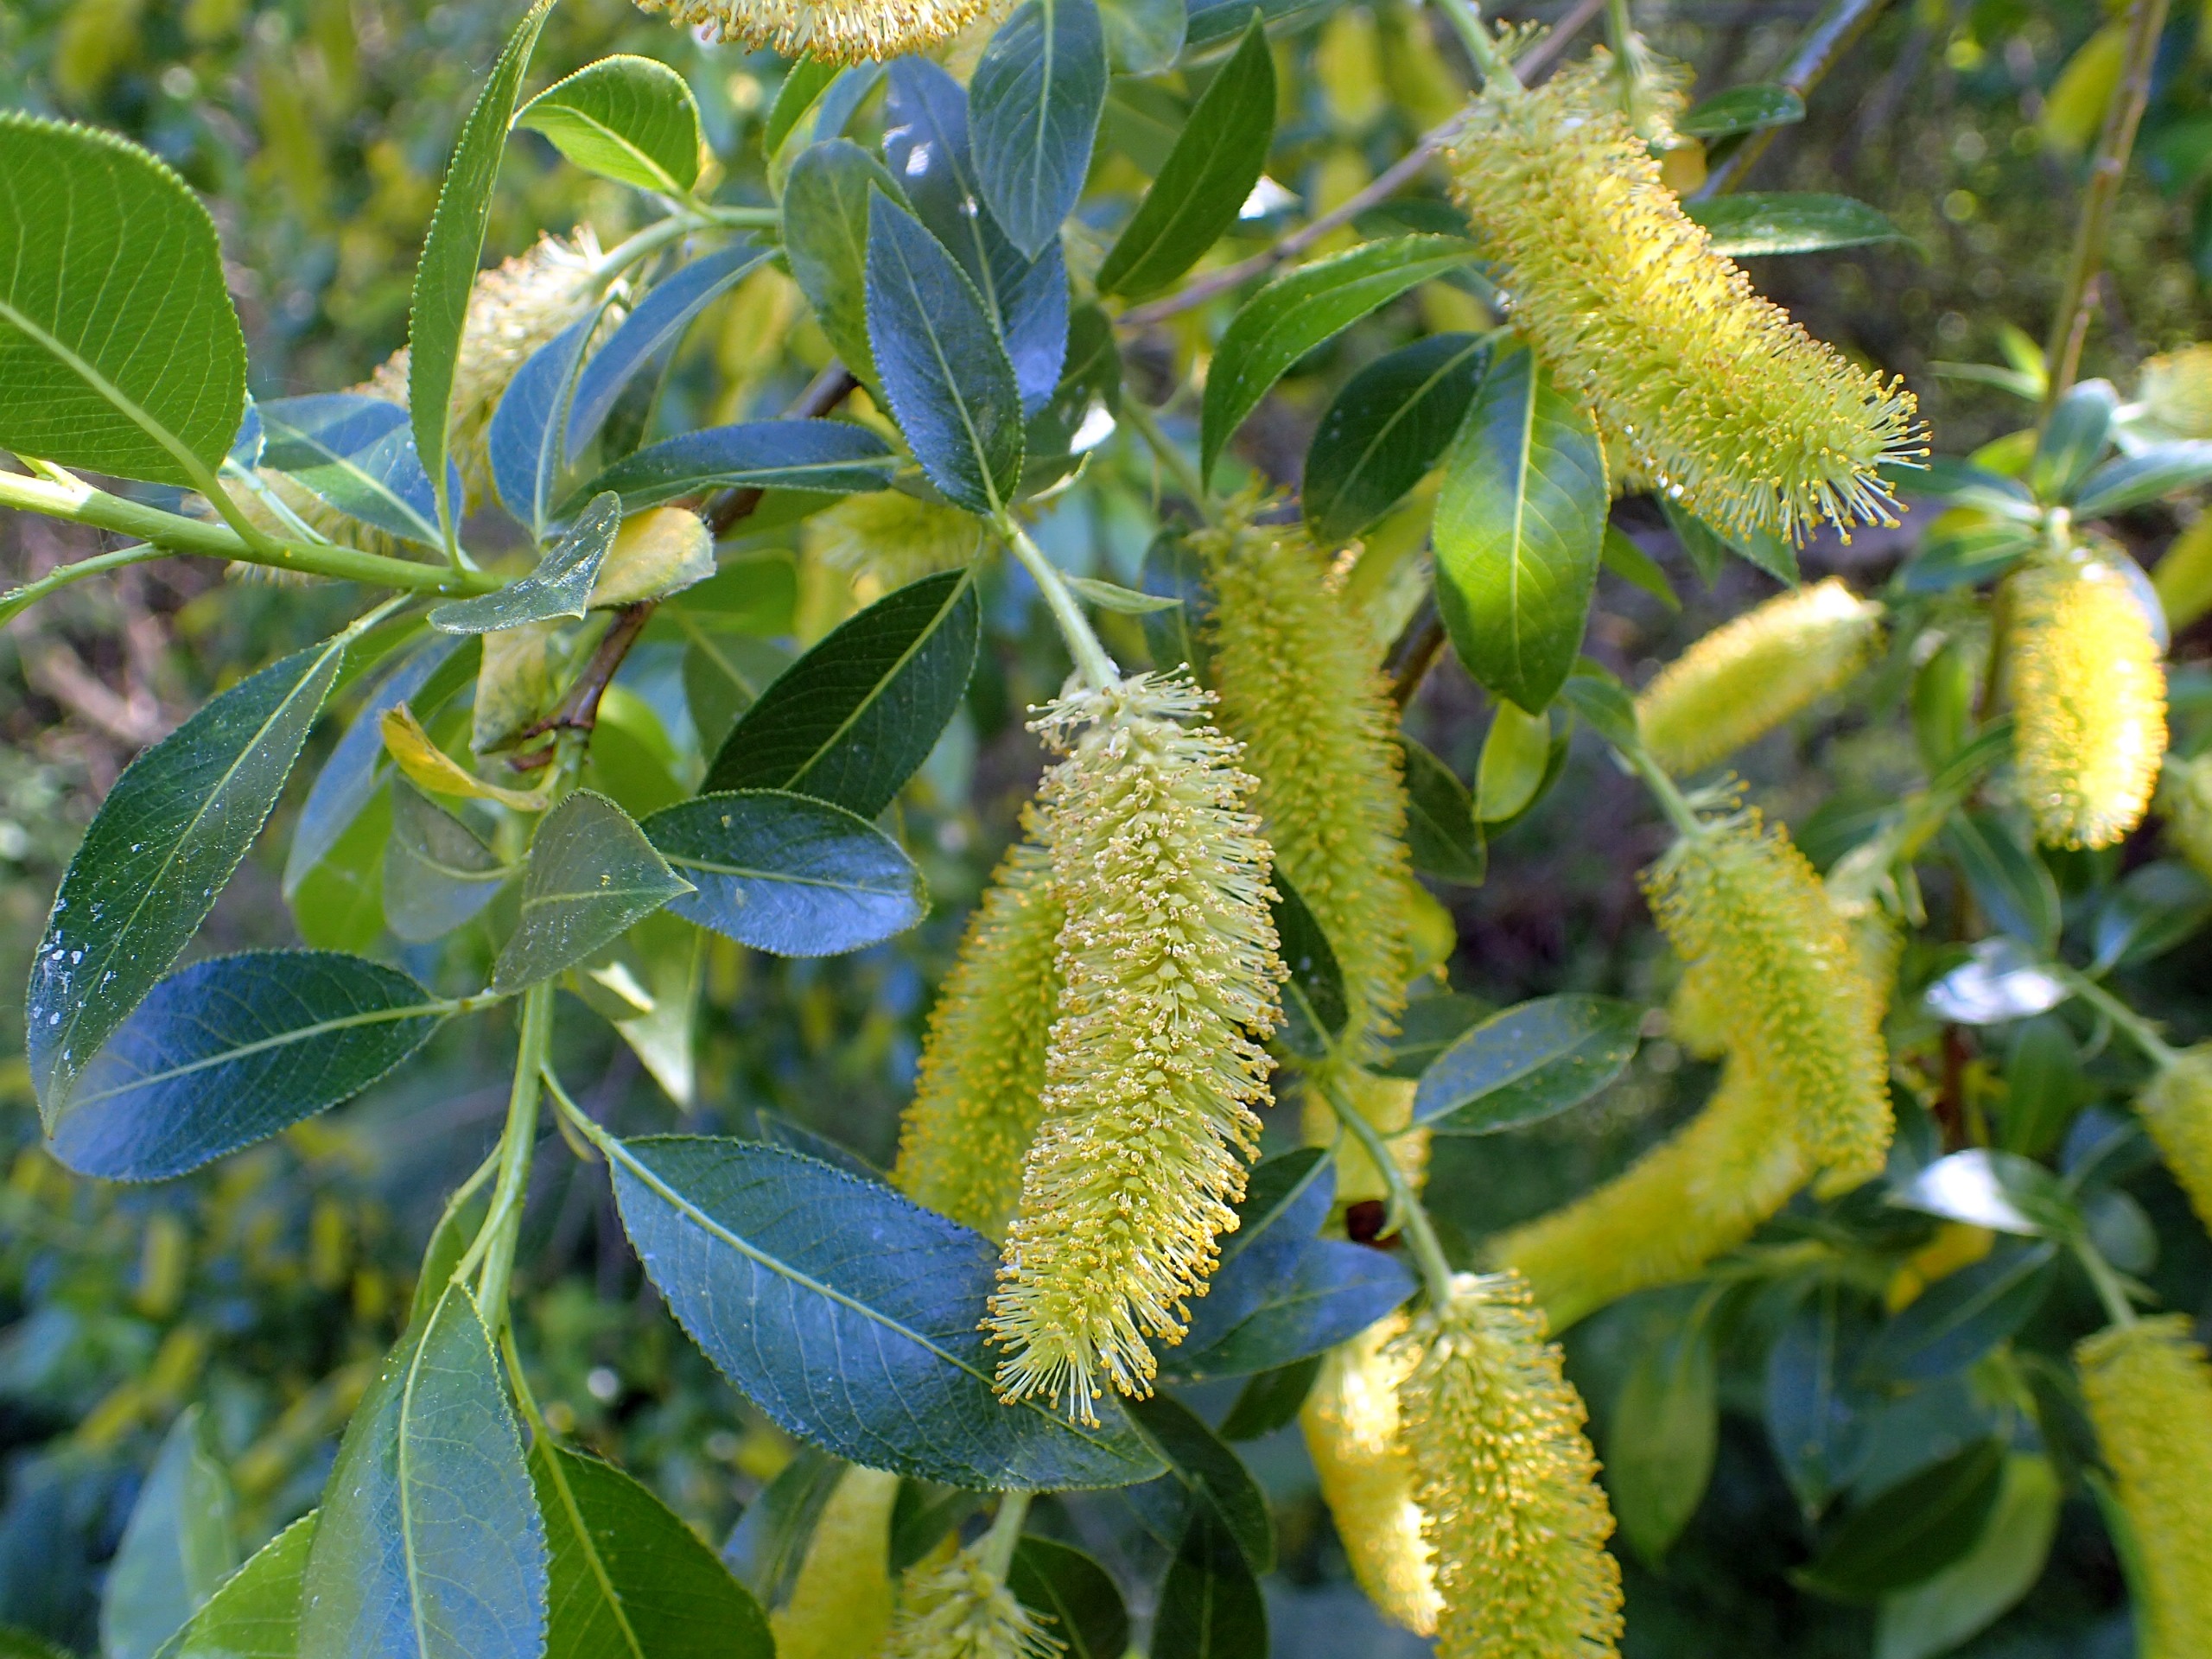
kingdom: Plantae
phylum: Tracheophyta
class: Magnoliopsida
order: Malpighiales
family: Salicaceae
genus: Salix
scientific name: Salix pentandra
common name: Femhannet pil
